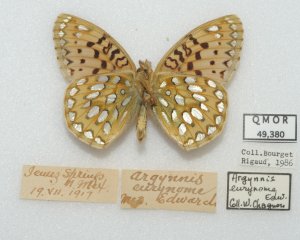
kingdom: Animalia
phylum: Arthropoda
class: Insecta
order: Lepidoptera
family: Nymphalidae
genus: Speyeria
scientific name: Speyeria mormonia
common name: Mormon Fritillary
